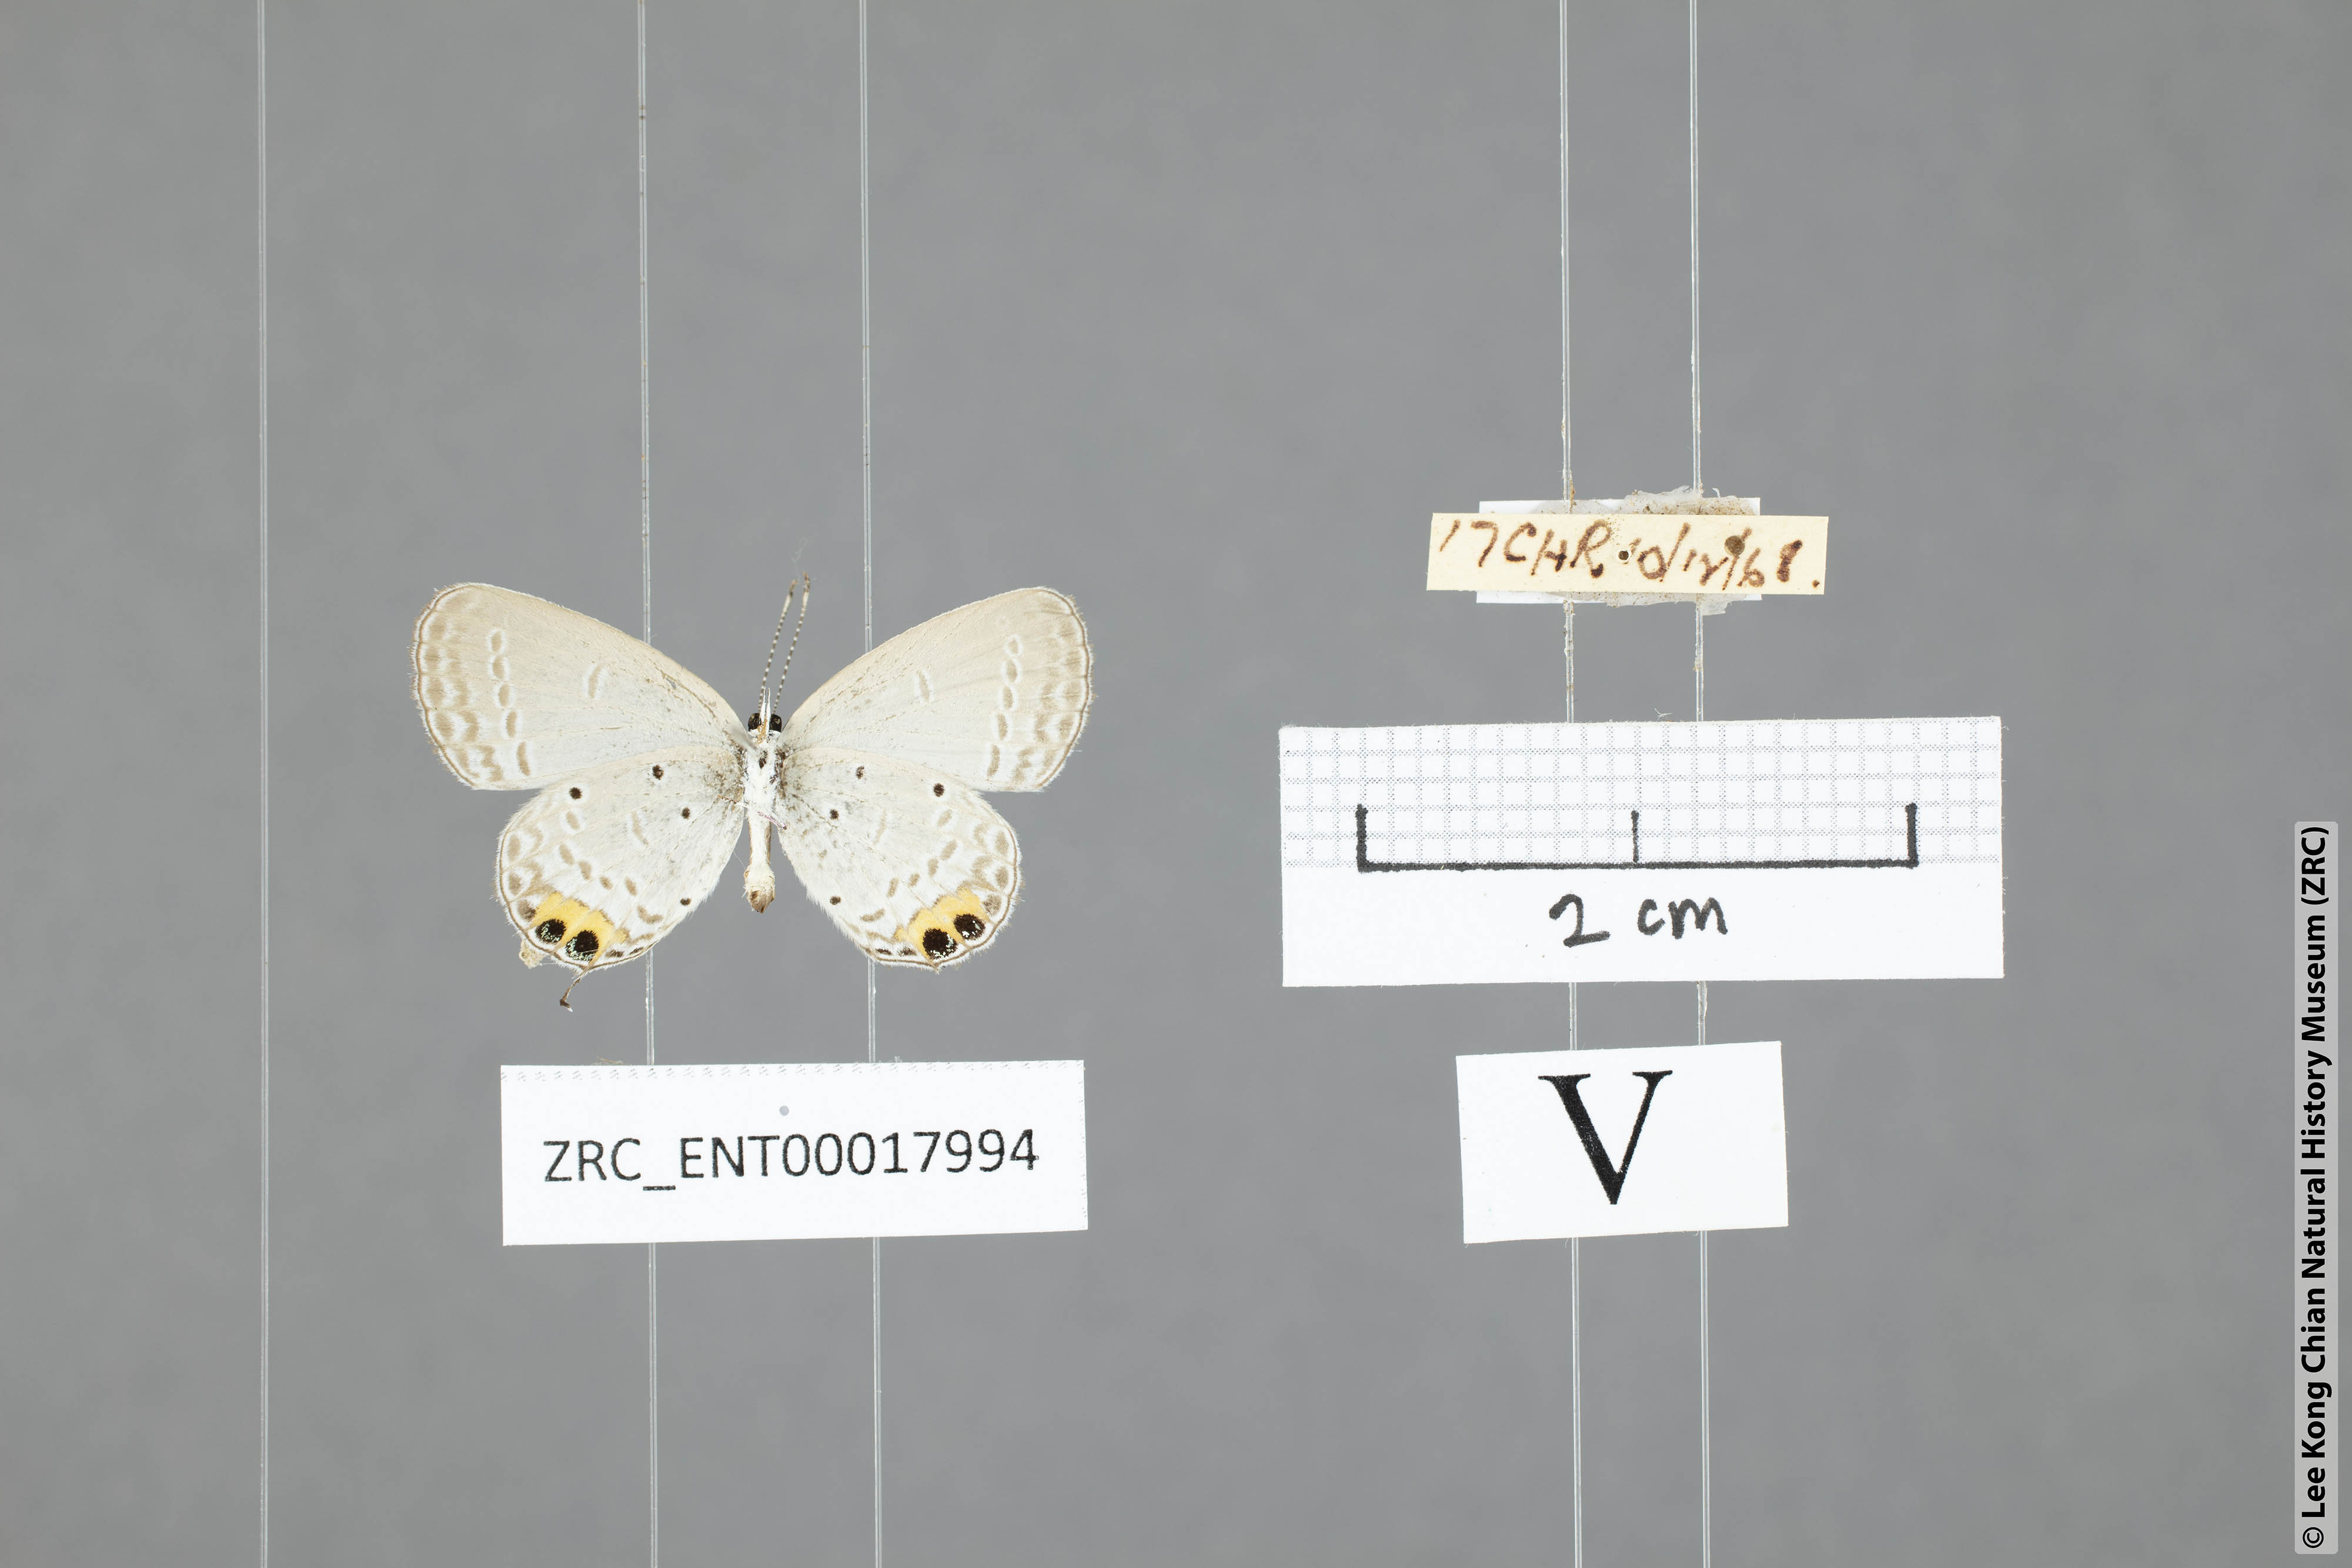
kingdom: Animalia
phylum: Arthropoda
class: Insecta
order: Lepidoptera
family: Lycaenidae
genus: Everes
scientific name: Everes lacturnus
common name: Orange-tipped pea-blue
